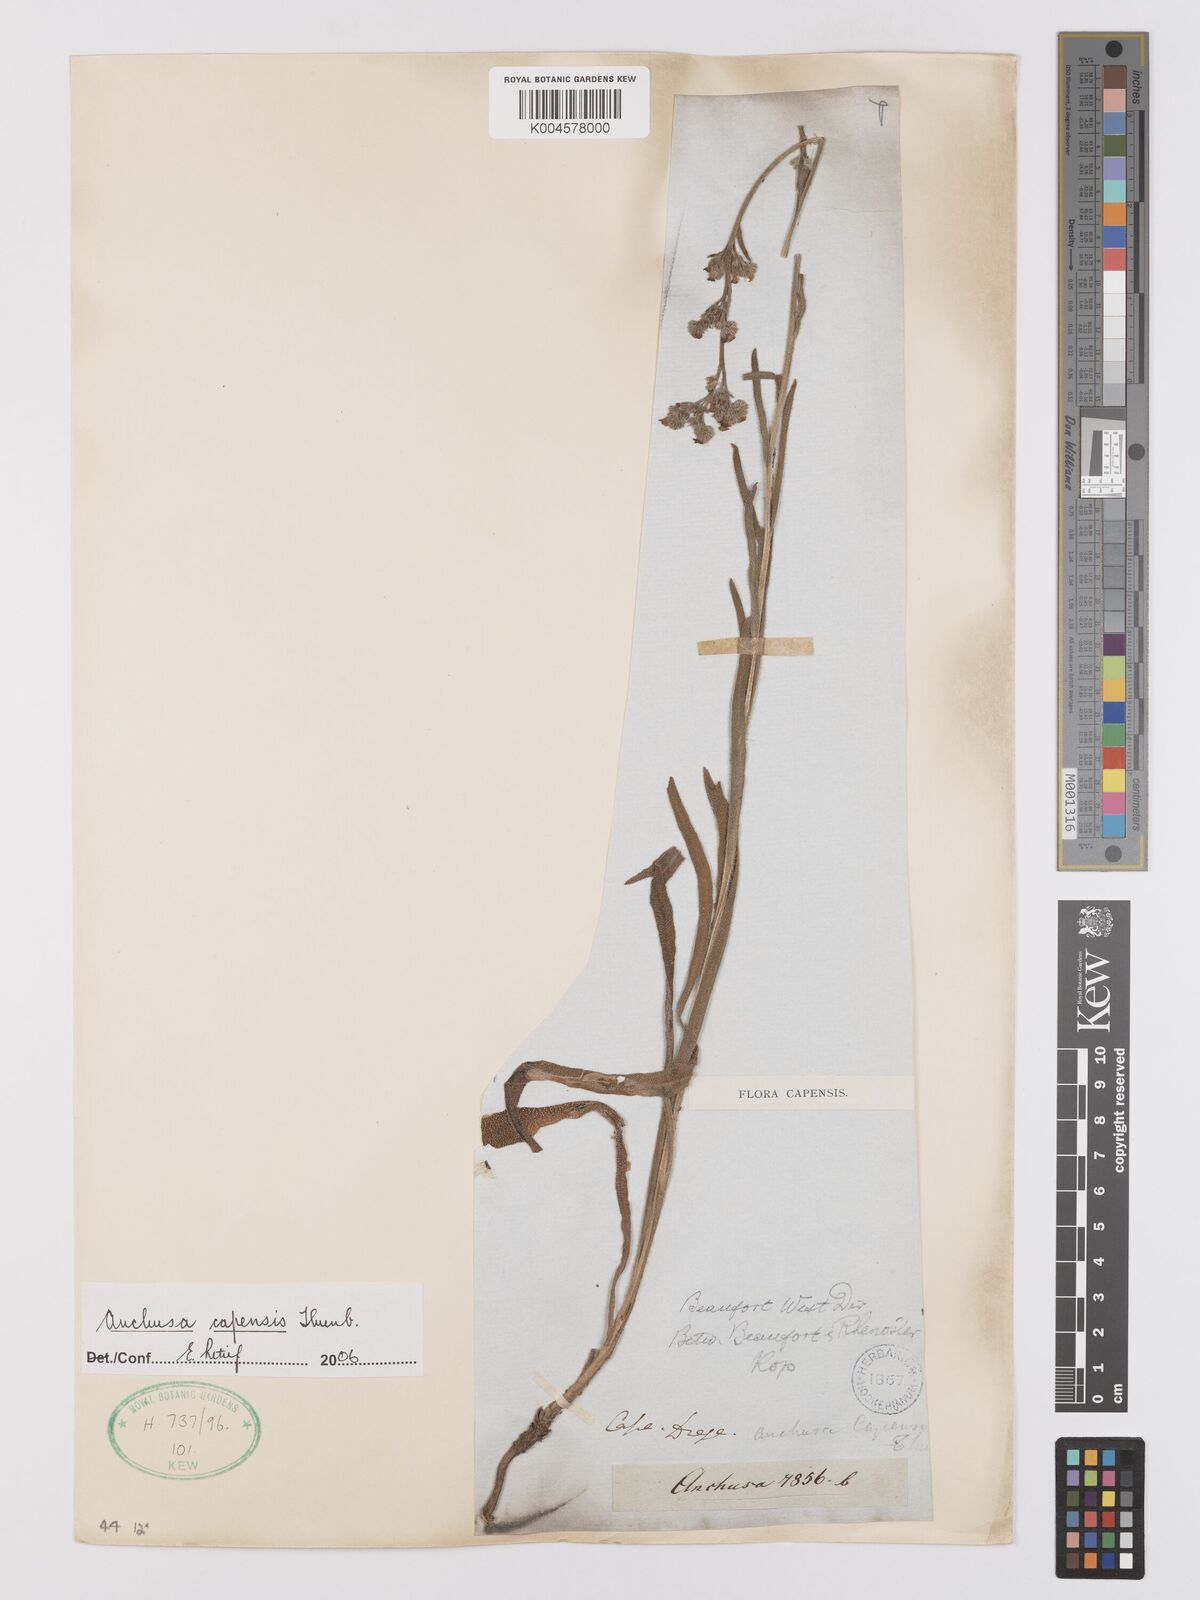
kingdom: Plantae
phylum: Tracheophyta
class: Magnoliopsida
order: Boraginales
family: Boraginaceae
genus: Anchusa
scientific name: Anchusa capensis
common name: Cape bugloss
